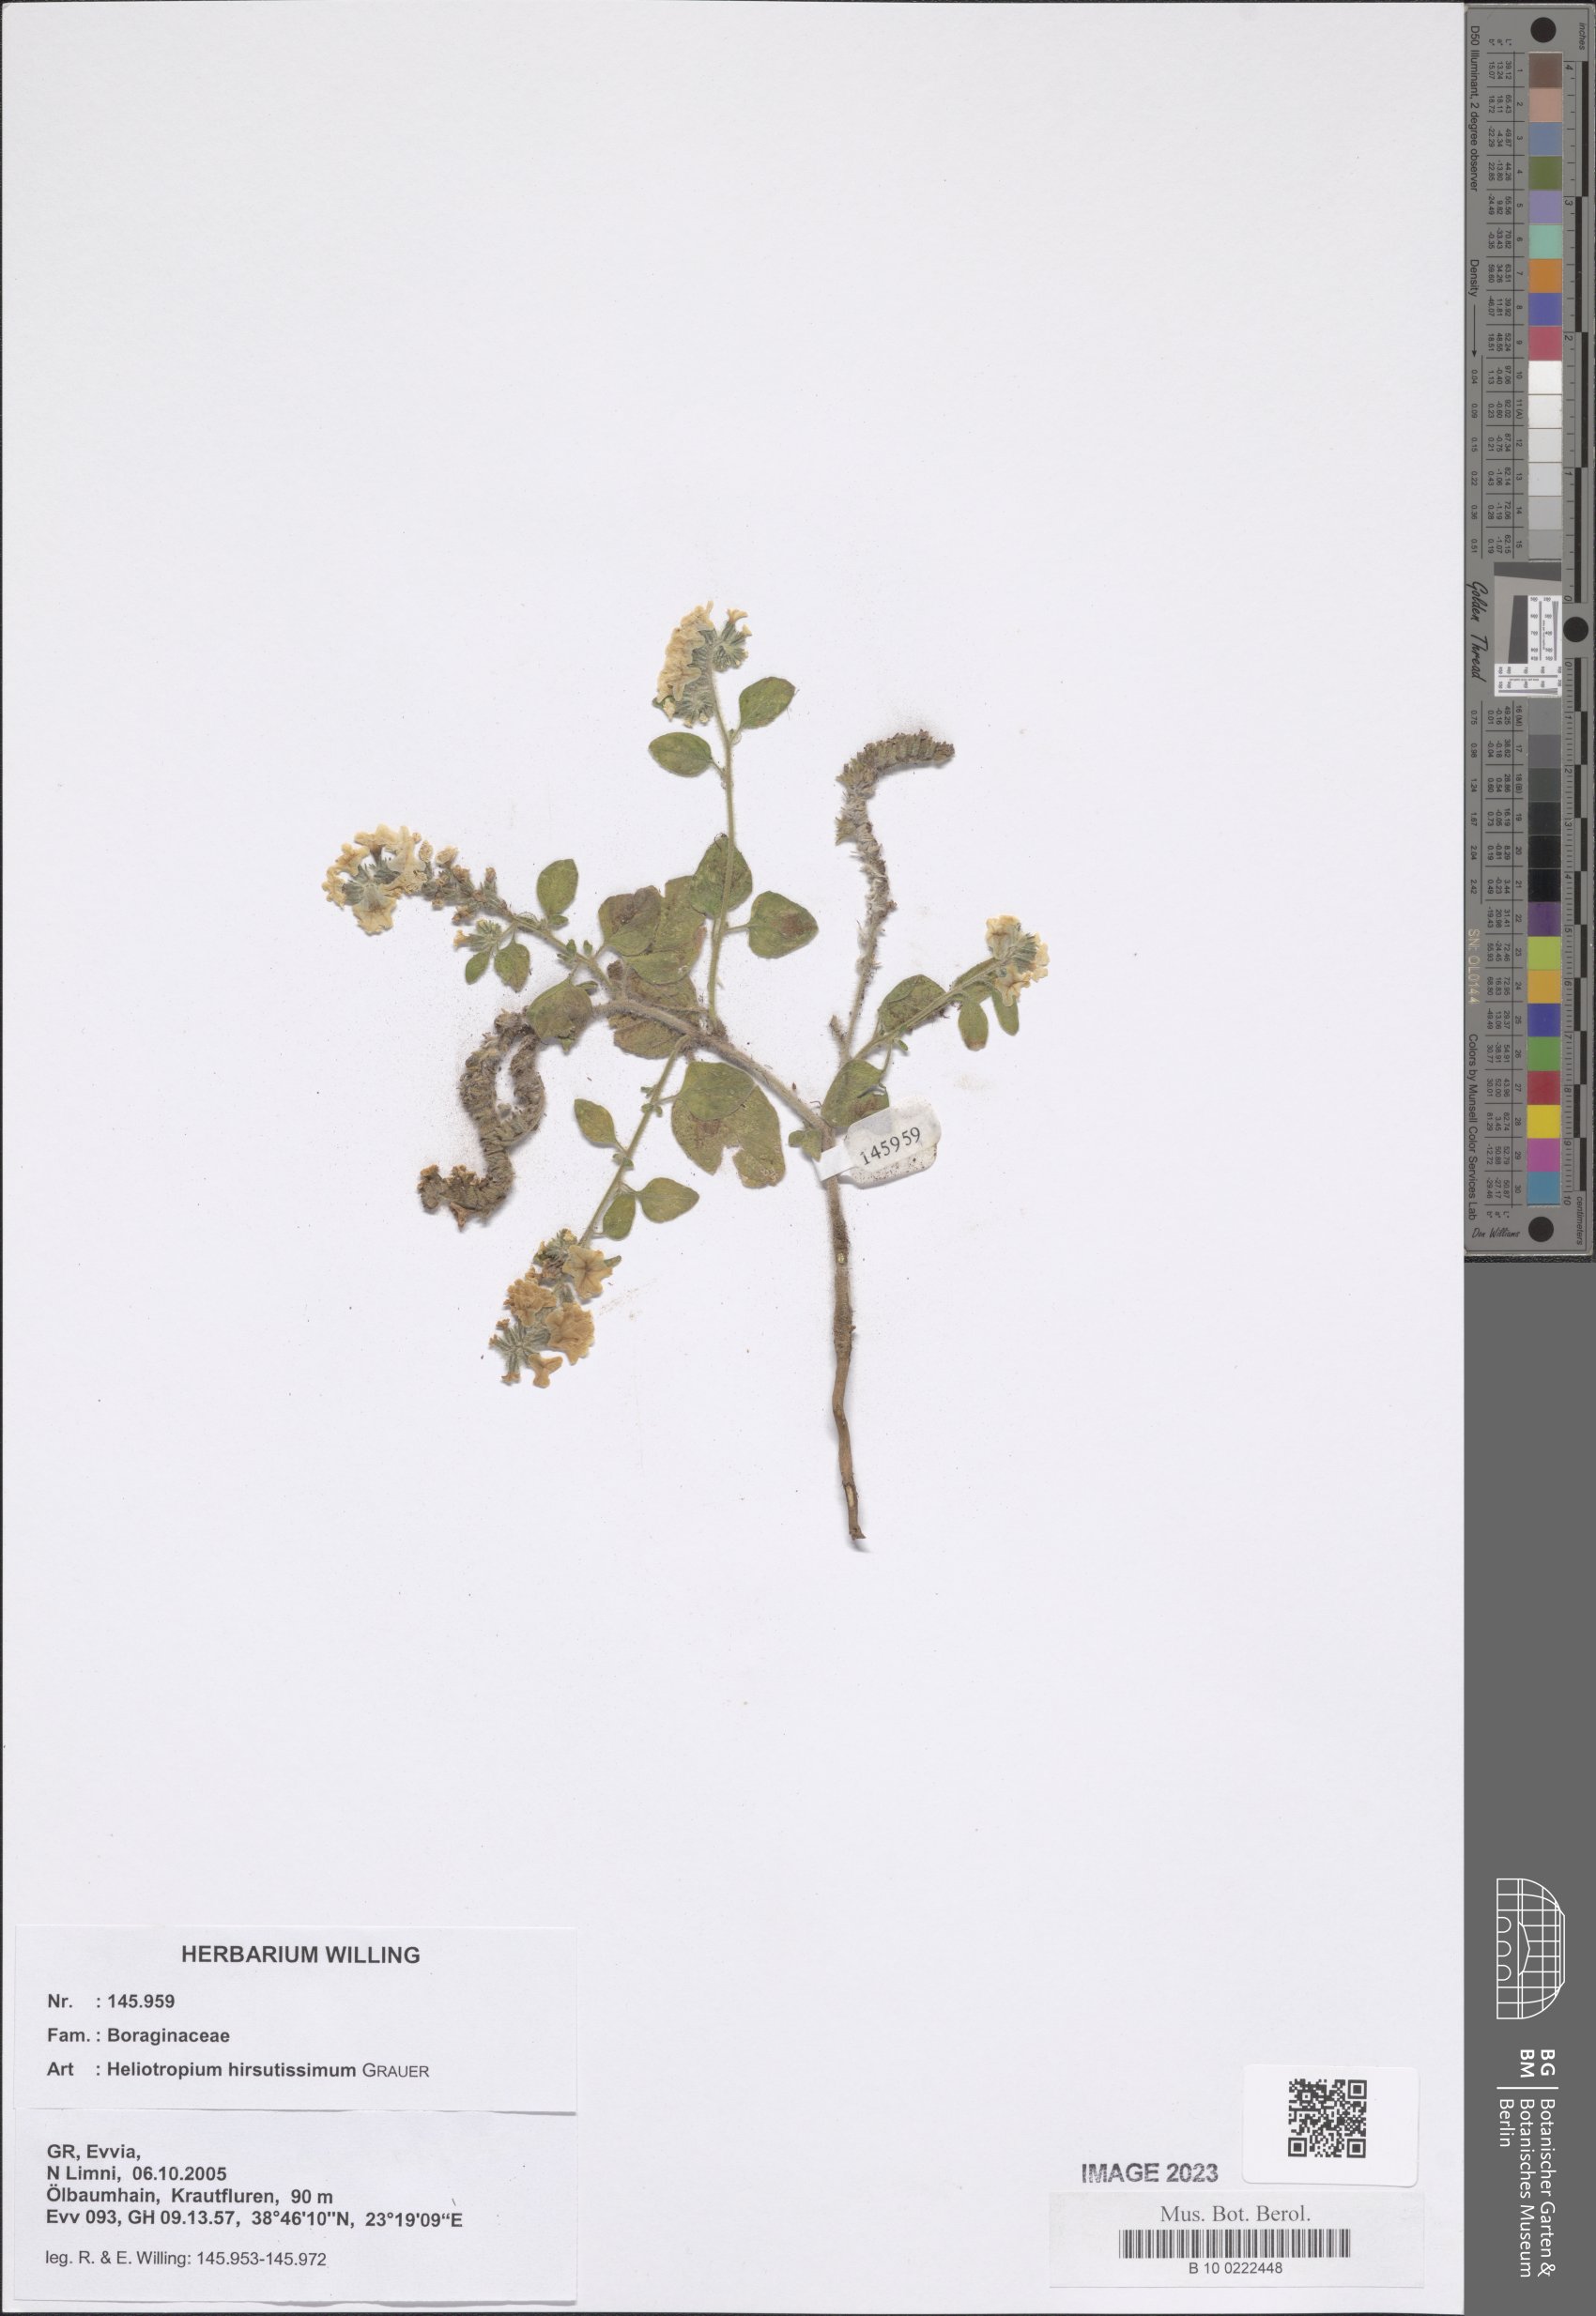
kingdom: Plantae
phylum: Tracheophyta
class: Magnoliopsida
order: Boraginales
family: Heliotropiaceae
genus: Heliotropium
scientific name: Heliotropium hirsutissimum
